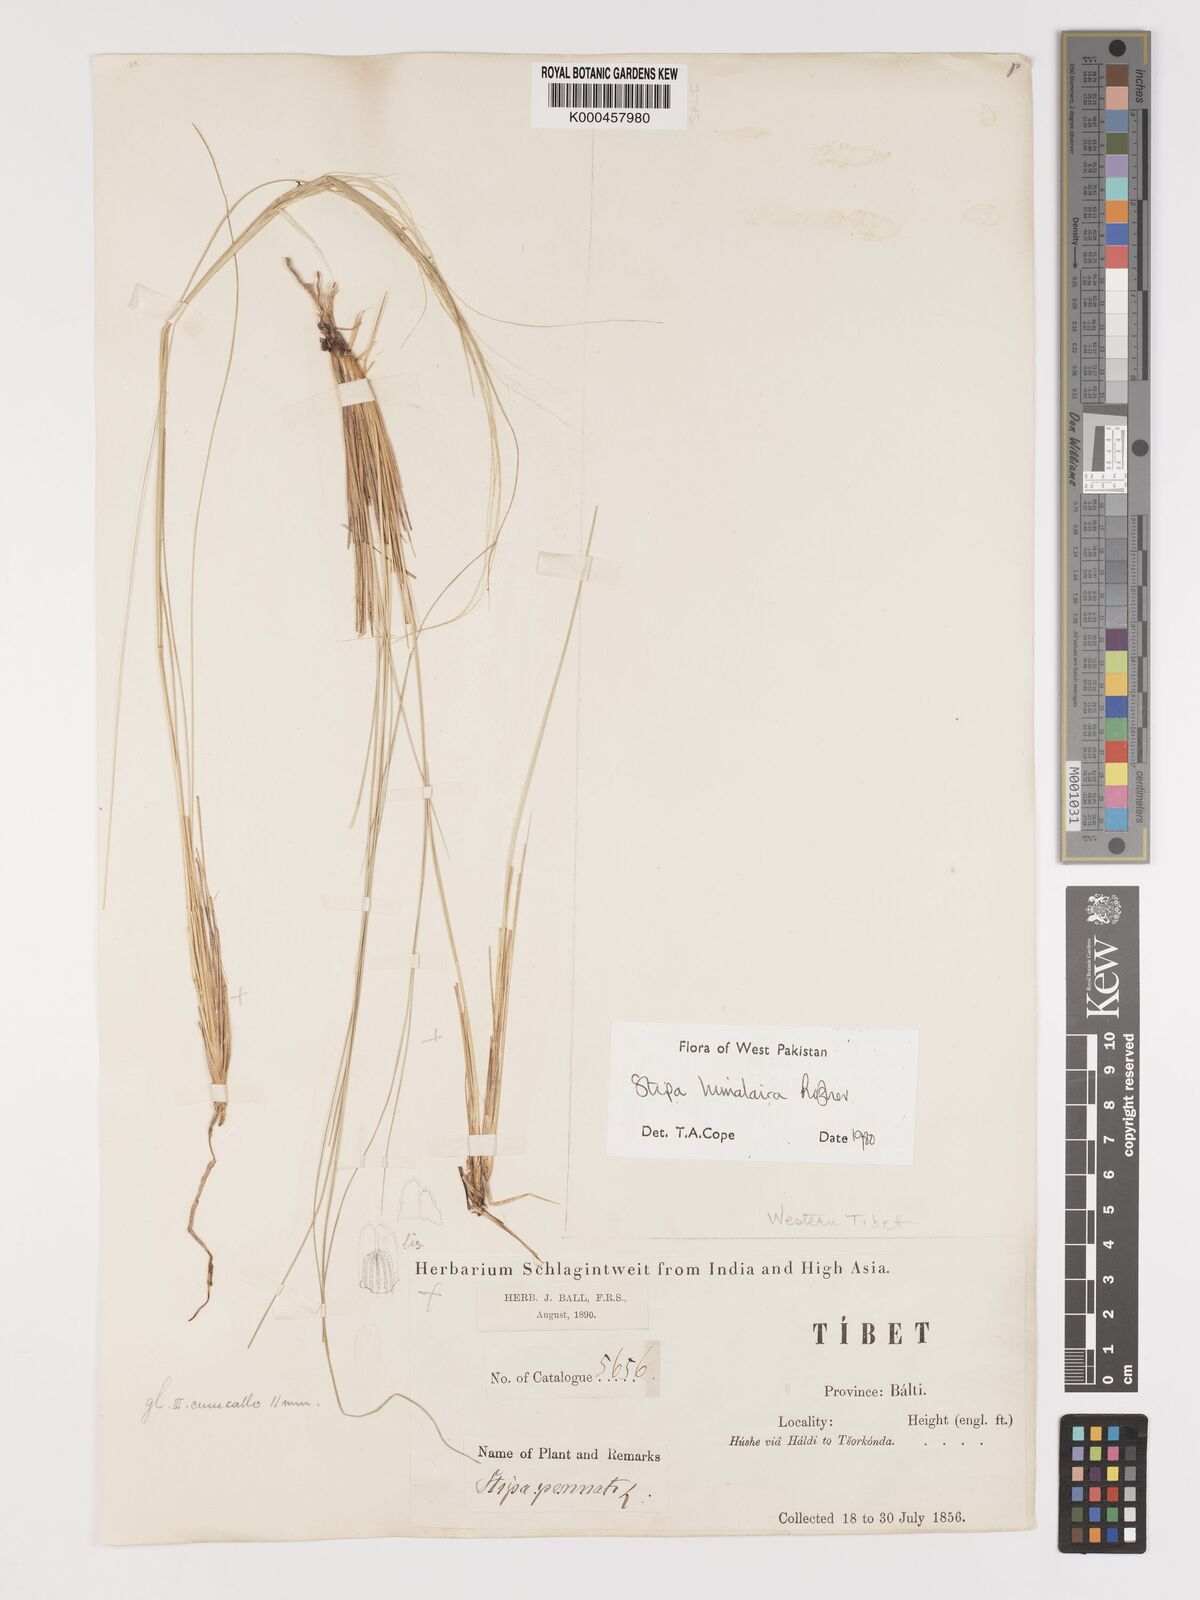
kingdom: Plantae
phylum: Tracheophyta
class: Liliopsida
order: Poales
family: Poaceae
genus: Stipa
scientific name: Stipa himalaica
